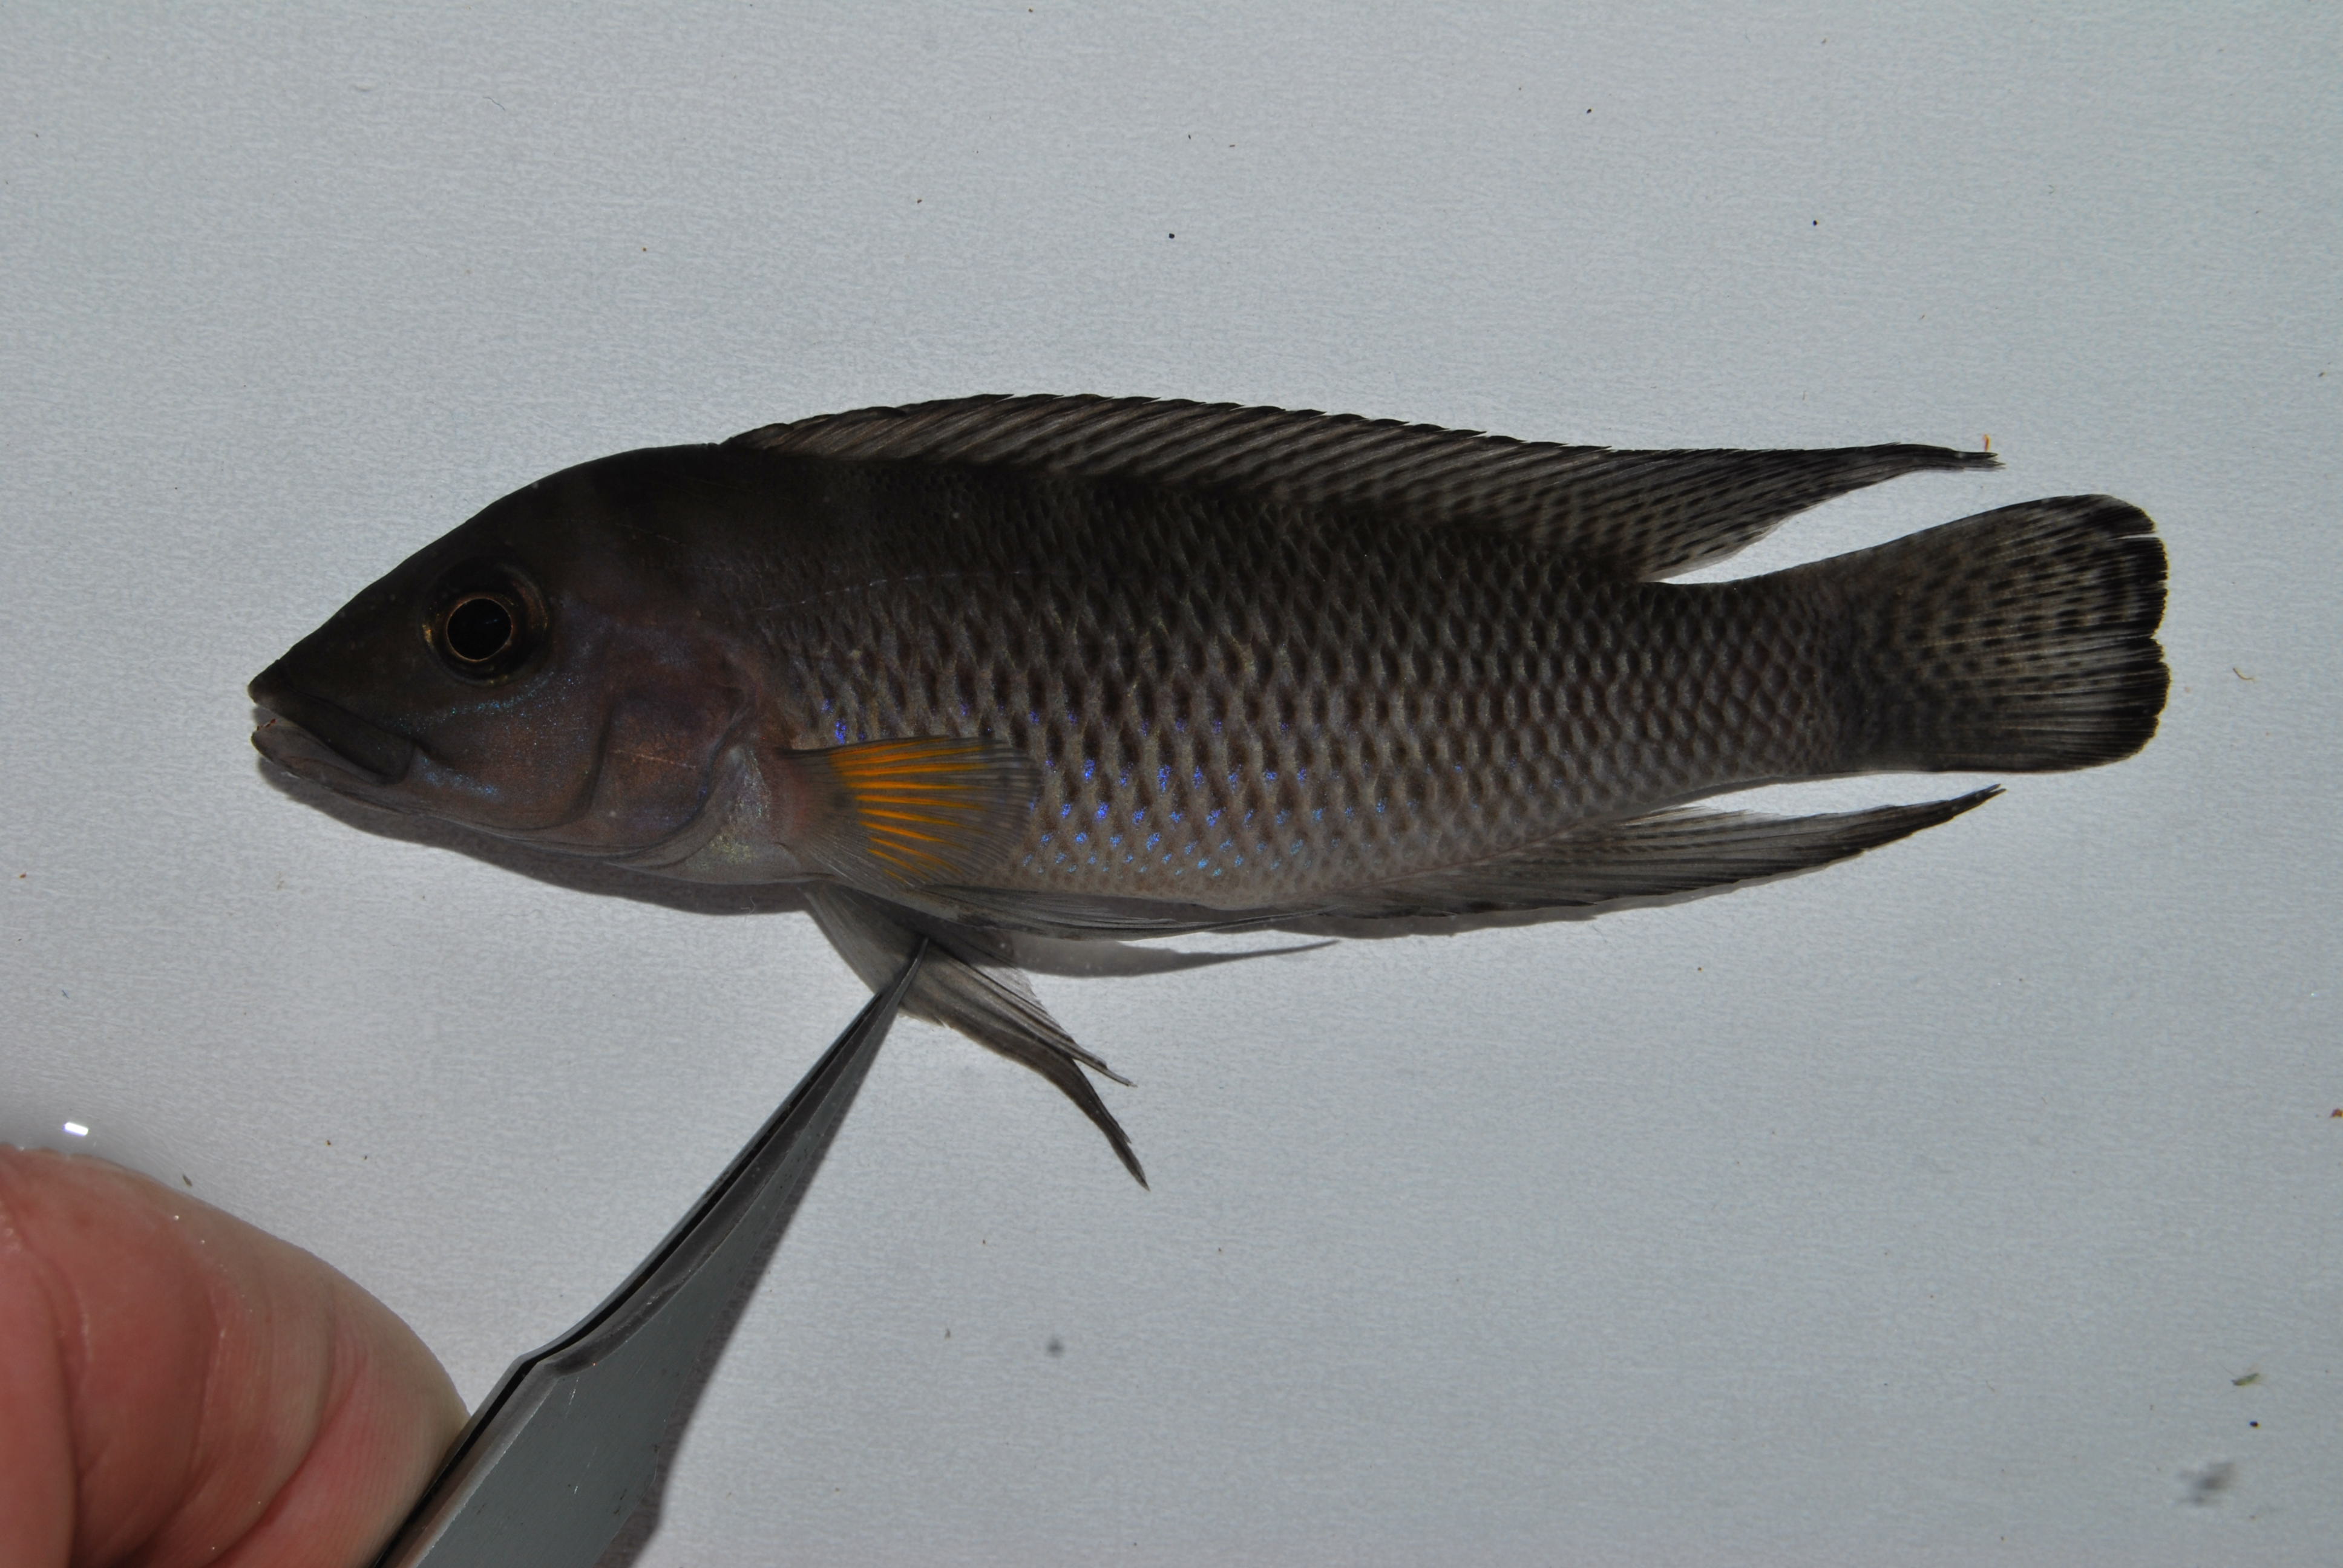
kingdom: Animalia
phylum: Chordata
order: Perciformes
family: Cichlidae
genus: Neolamprologus
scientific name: Neolamprologus modestus
